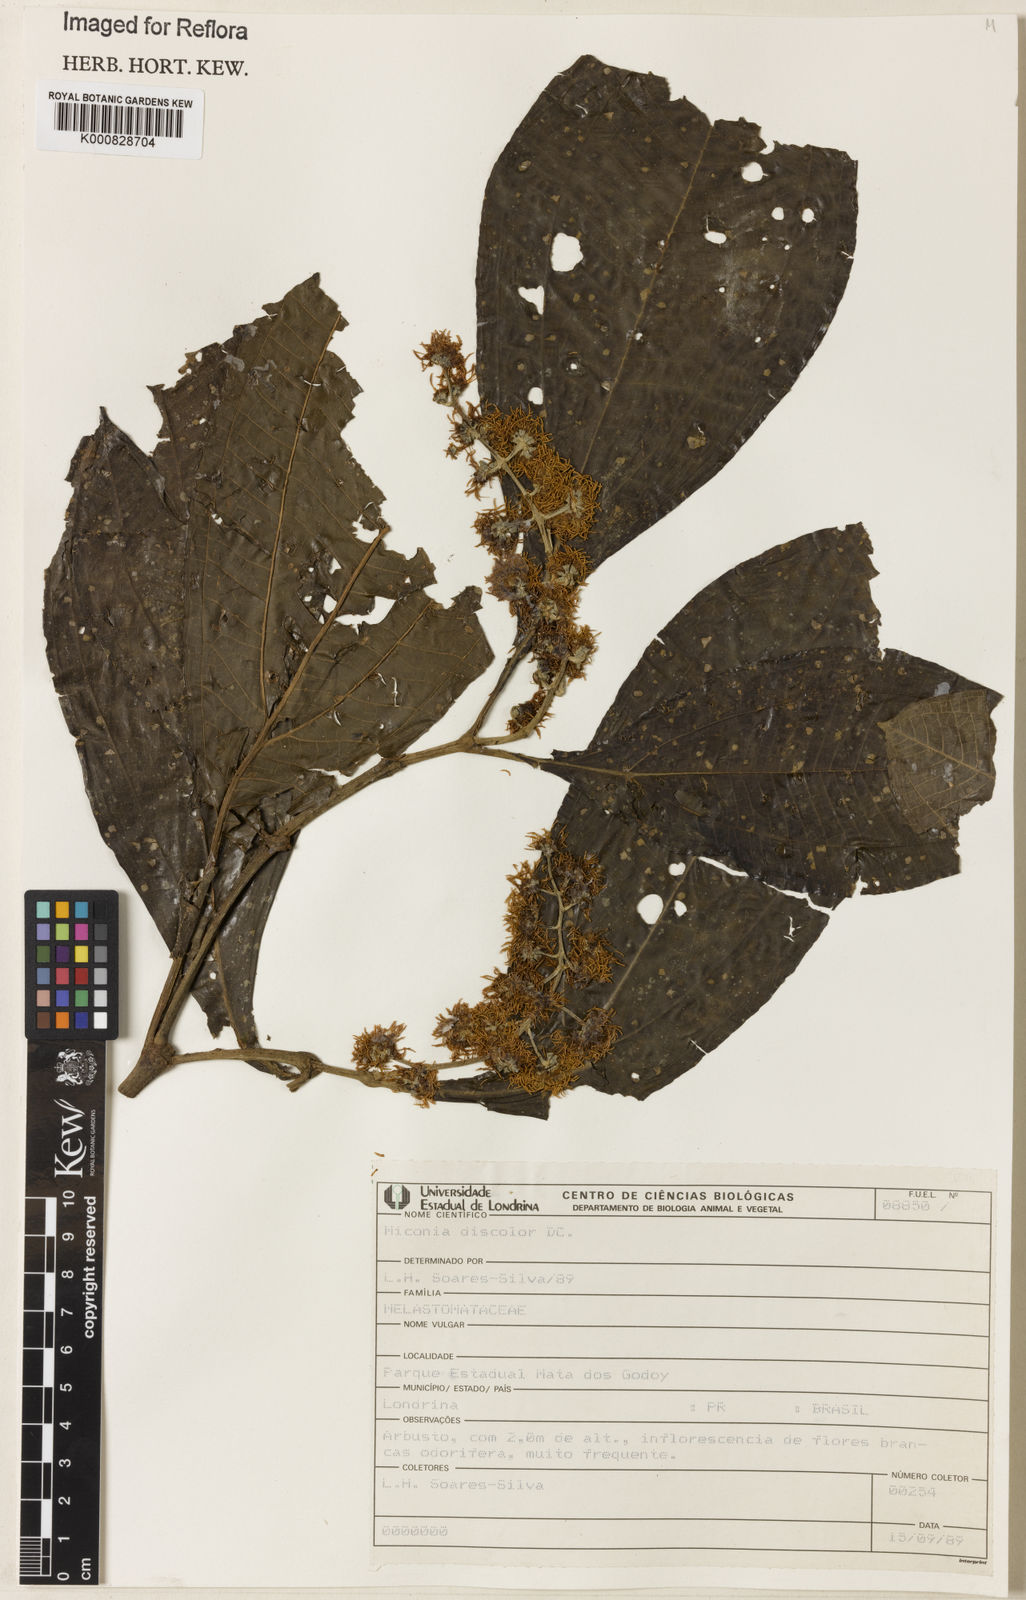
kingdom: Plantae
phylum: Tracheophyta
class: Magnoliopsida
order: Myrtales
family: Melastomataceae
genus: Miconia
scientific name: Miconia discolor
